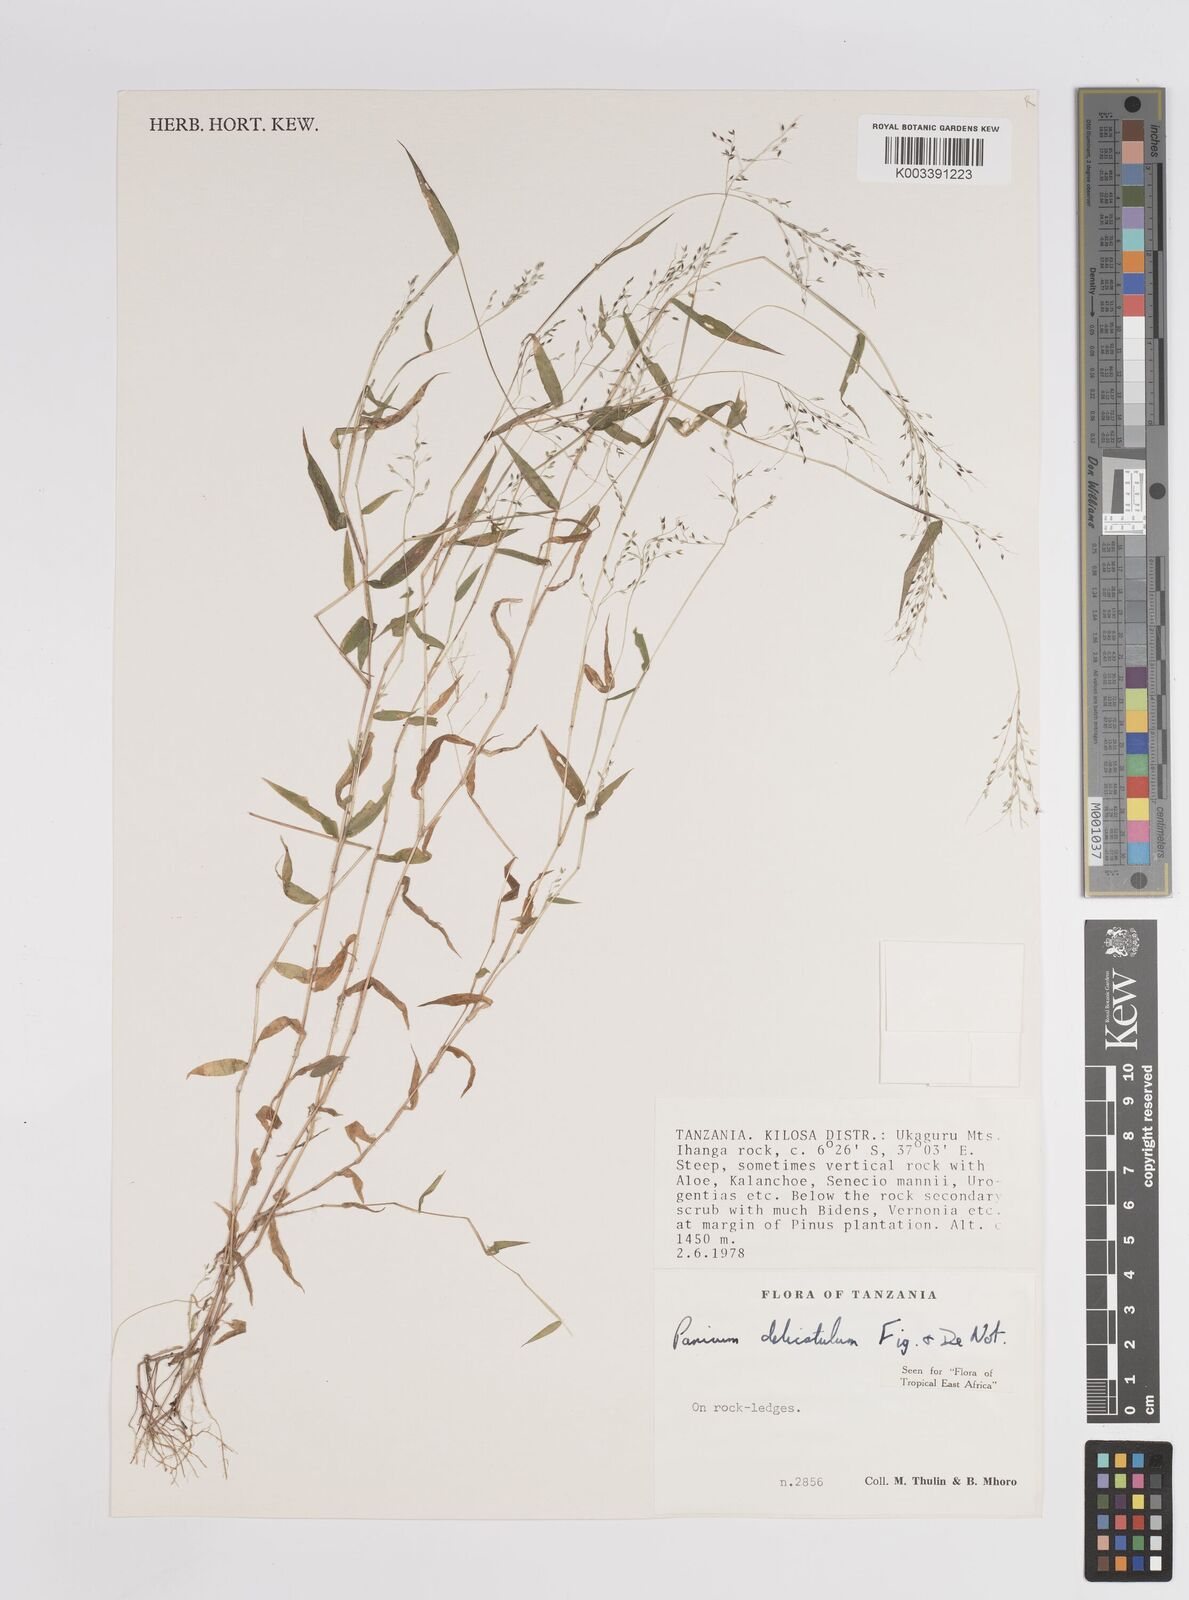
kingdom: Plantae
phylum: Tracheophyta
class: Liliopsida
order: Poales
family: Poaceae
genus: Panicum
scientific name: Panicum delicatulum
